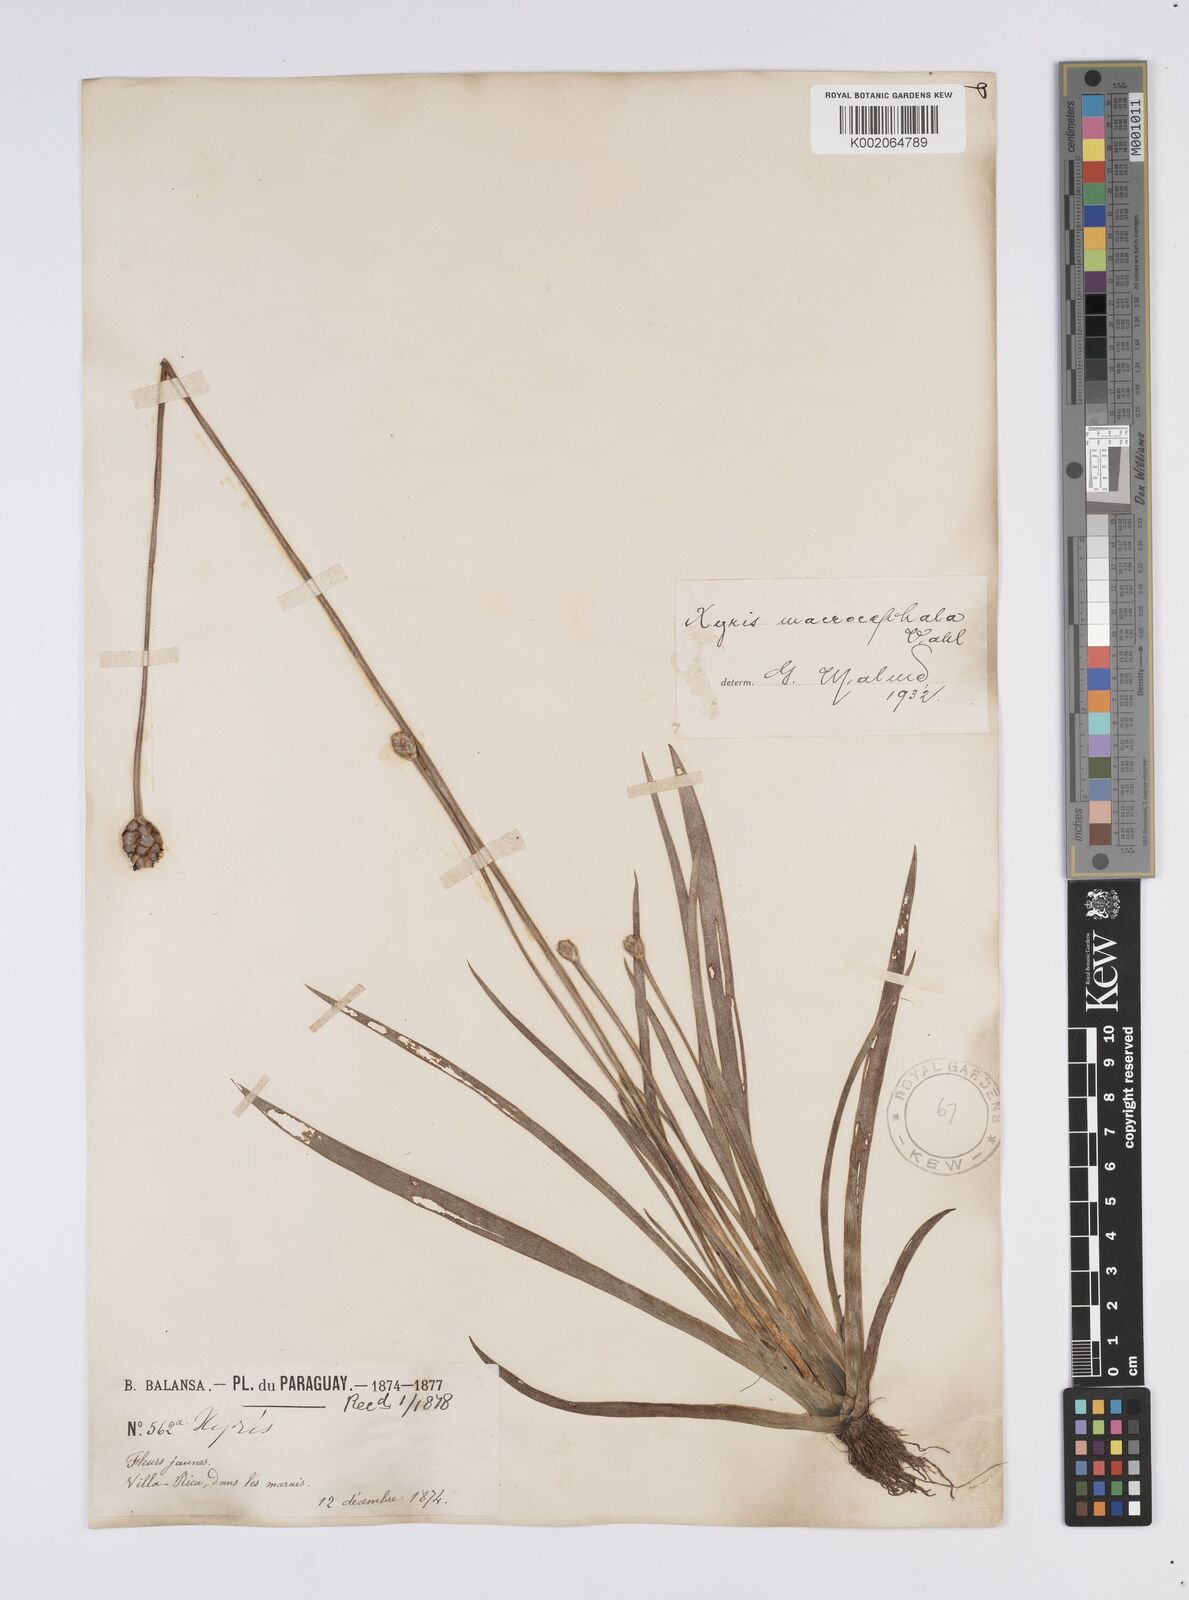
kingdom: Plantae
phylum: Tracheophyta
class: Liliopsida
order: Poales
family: Xyridaceae
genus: Xyris
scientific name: Xyris laxifolia
